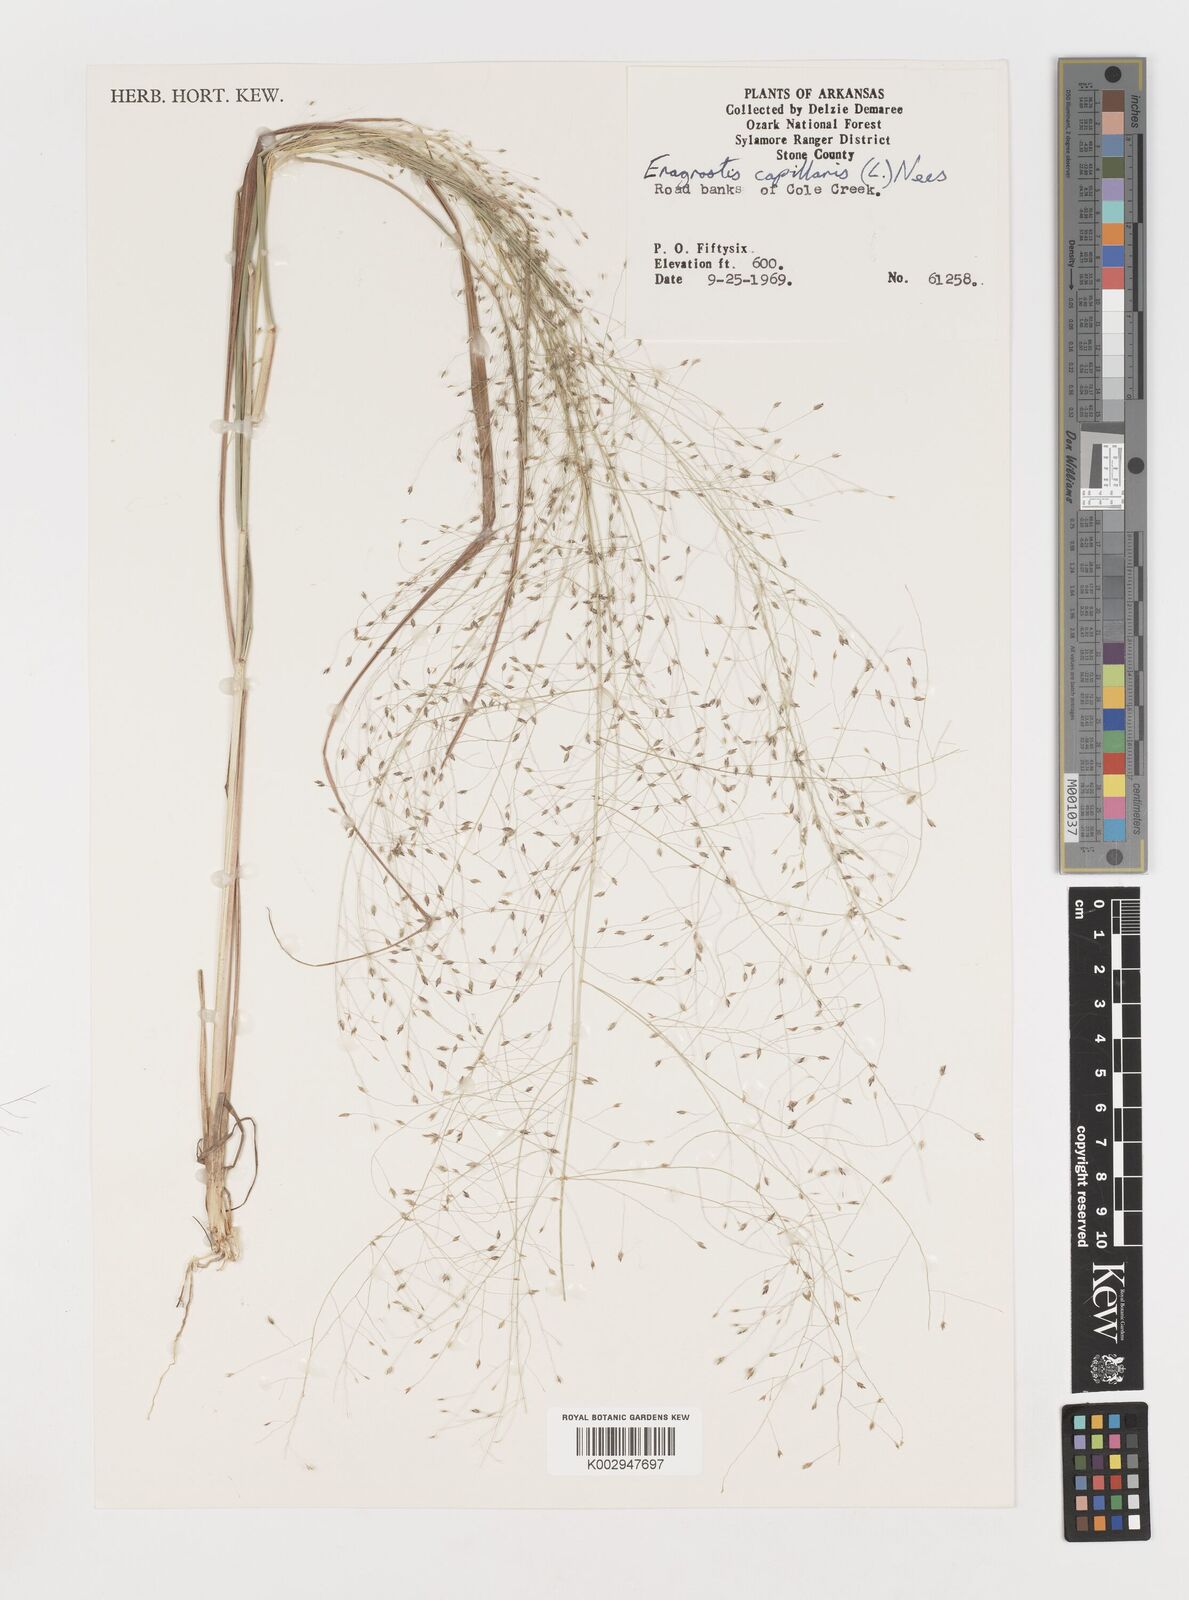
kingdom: Plantae
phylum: Tracheophyta
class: Liliopsida
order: Poales
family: Poaceae
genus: Eragrostis
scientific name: Eragrostis capillaris
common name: Hair-like lovegrass
